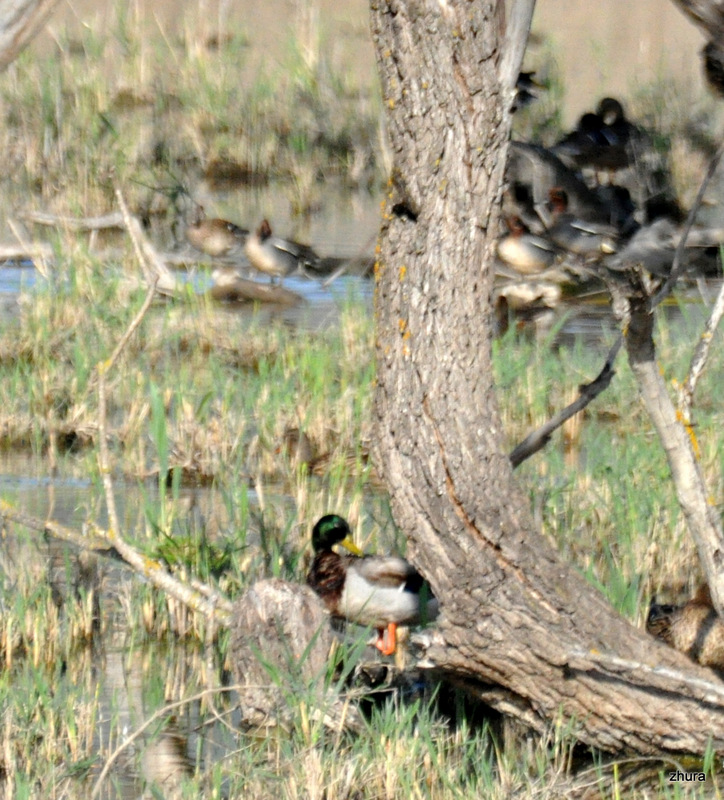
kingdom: Animalia
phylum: Chordata
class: Aves
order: Anseriformes
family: Anatidae
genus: Anas
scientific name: Anas platyrhynchos
